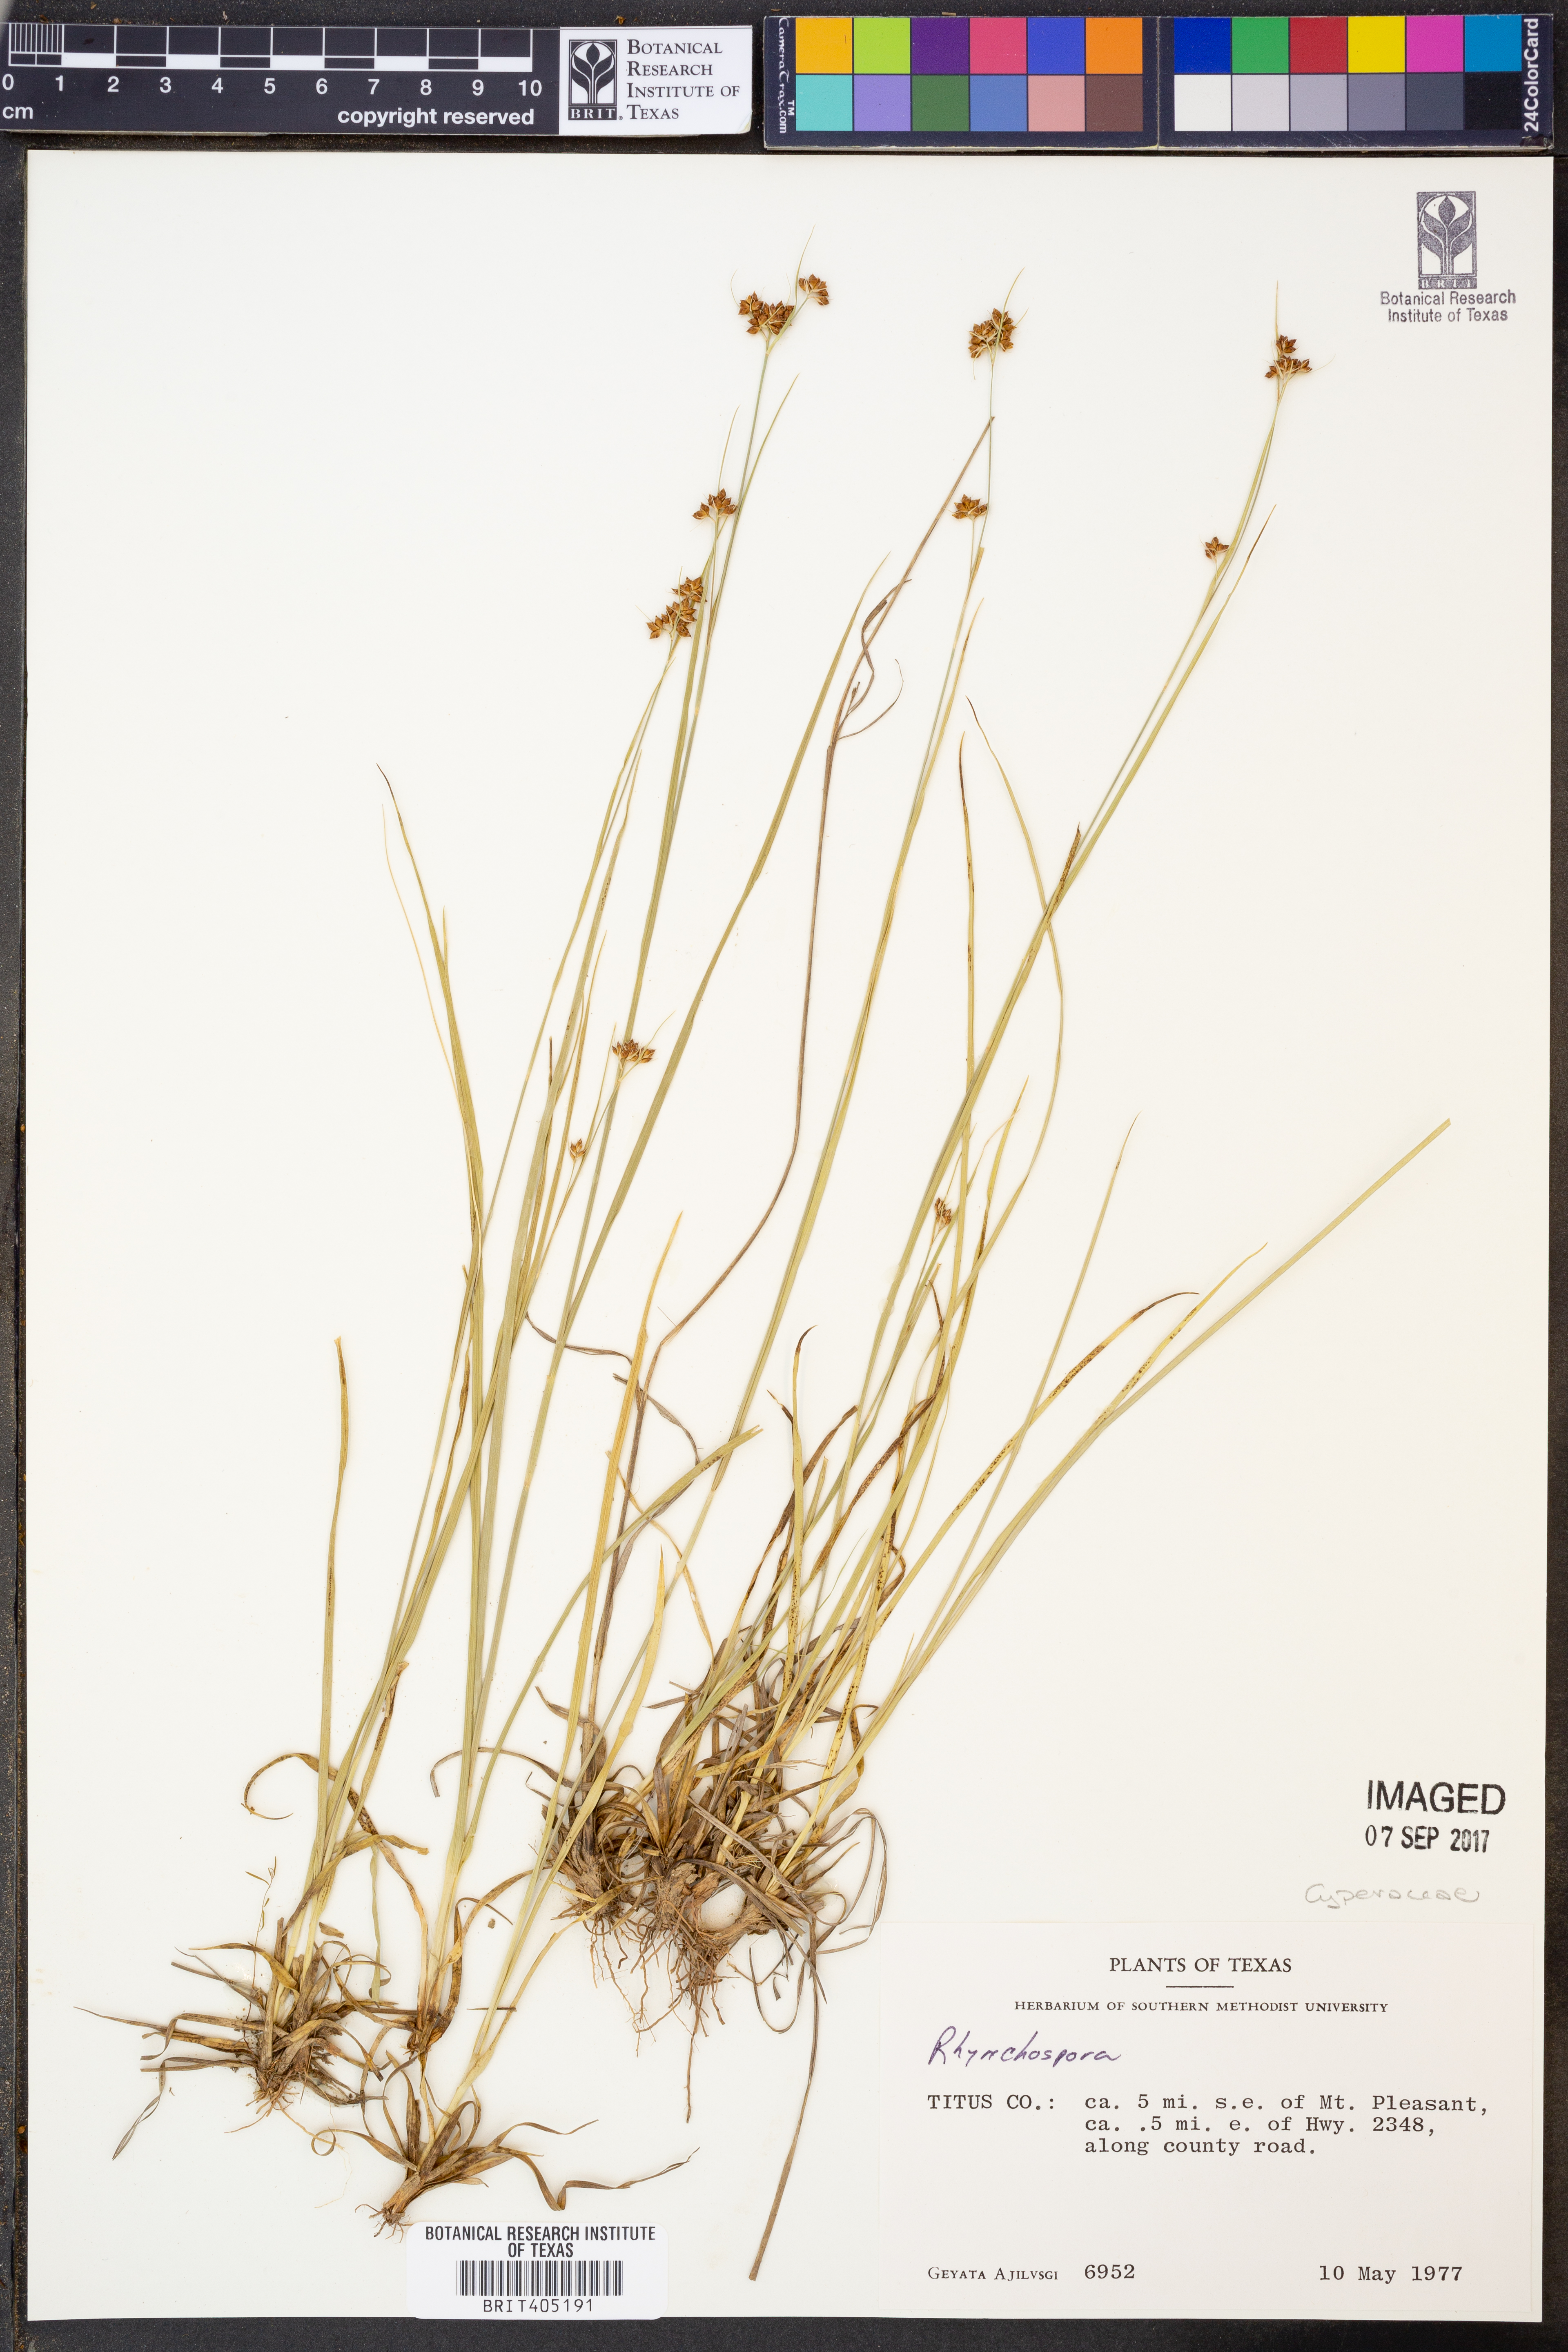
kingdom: Plantae
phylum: Tracheophyta
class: Liliopsida
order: Poales
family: Cyperaceae
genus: Rhynchospora
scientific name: Rhynchospora
